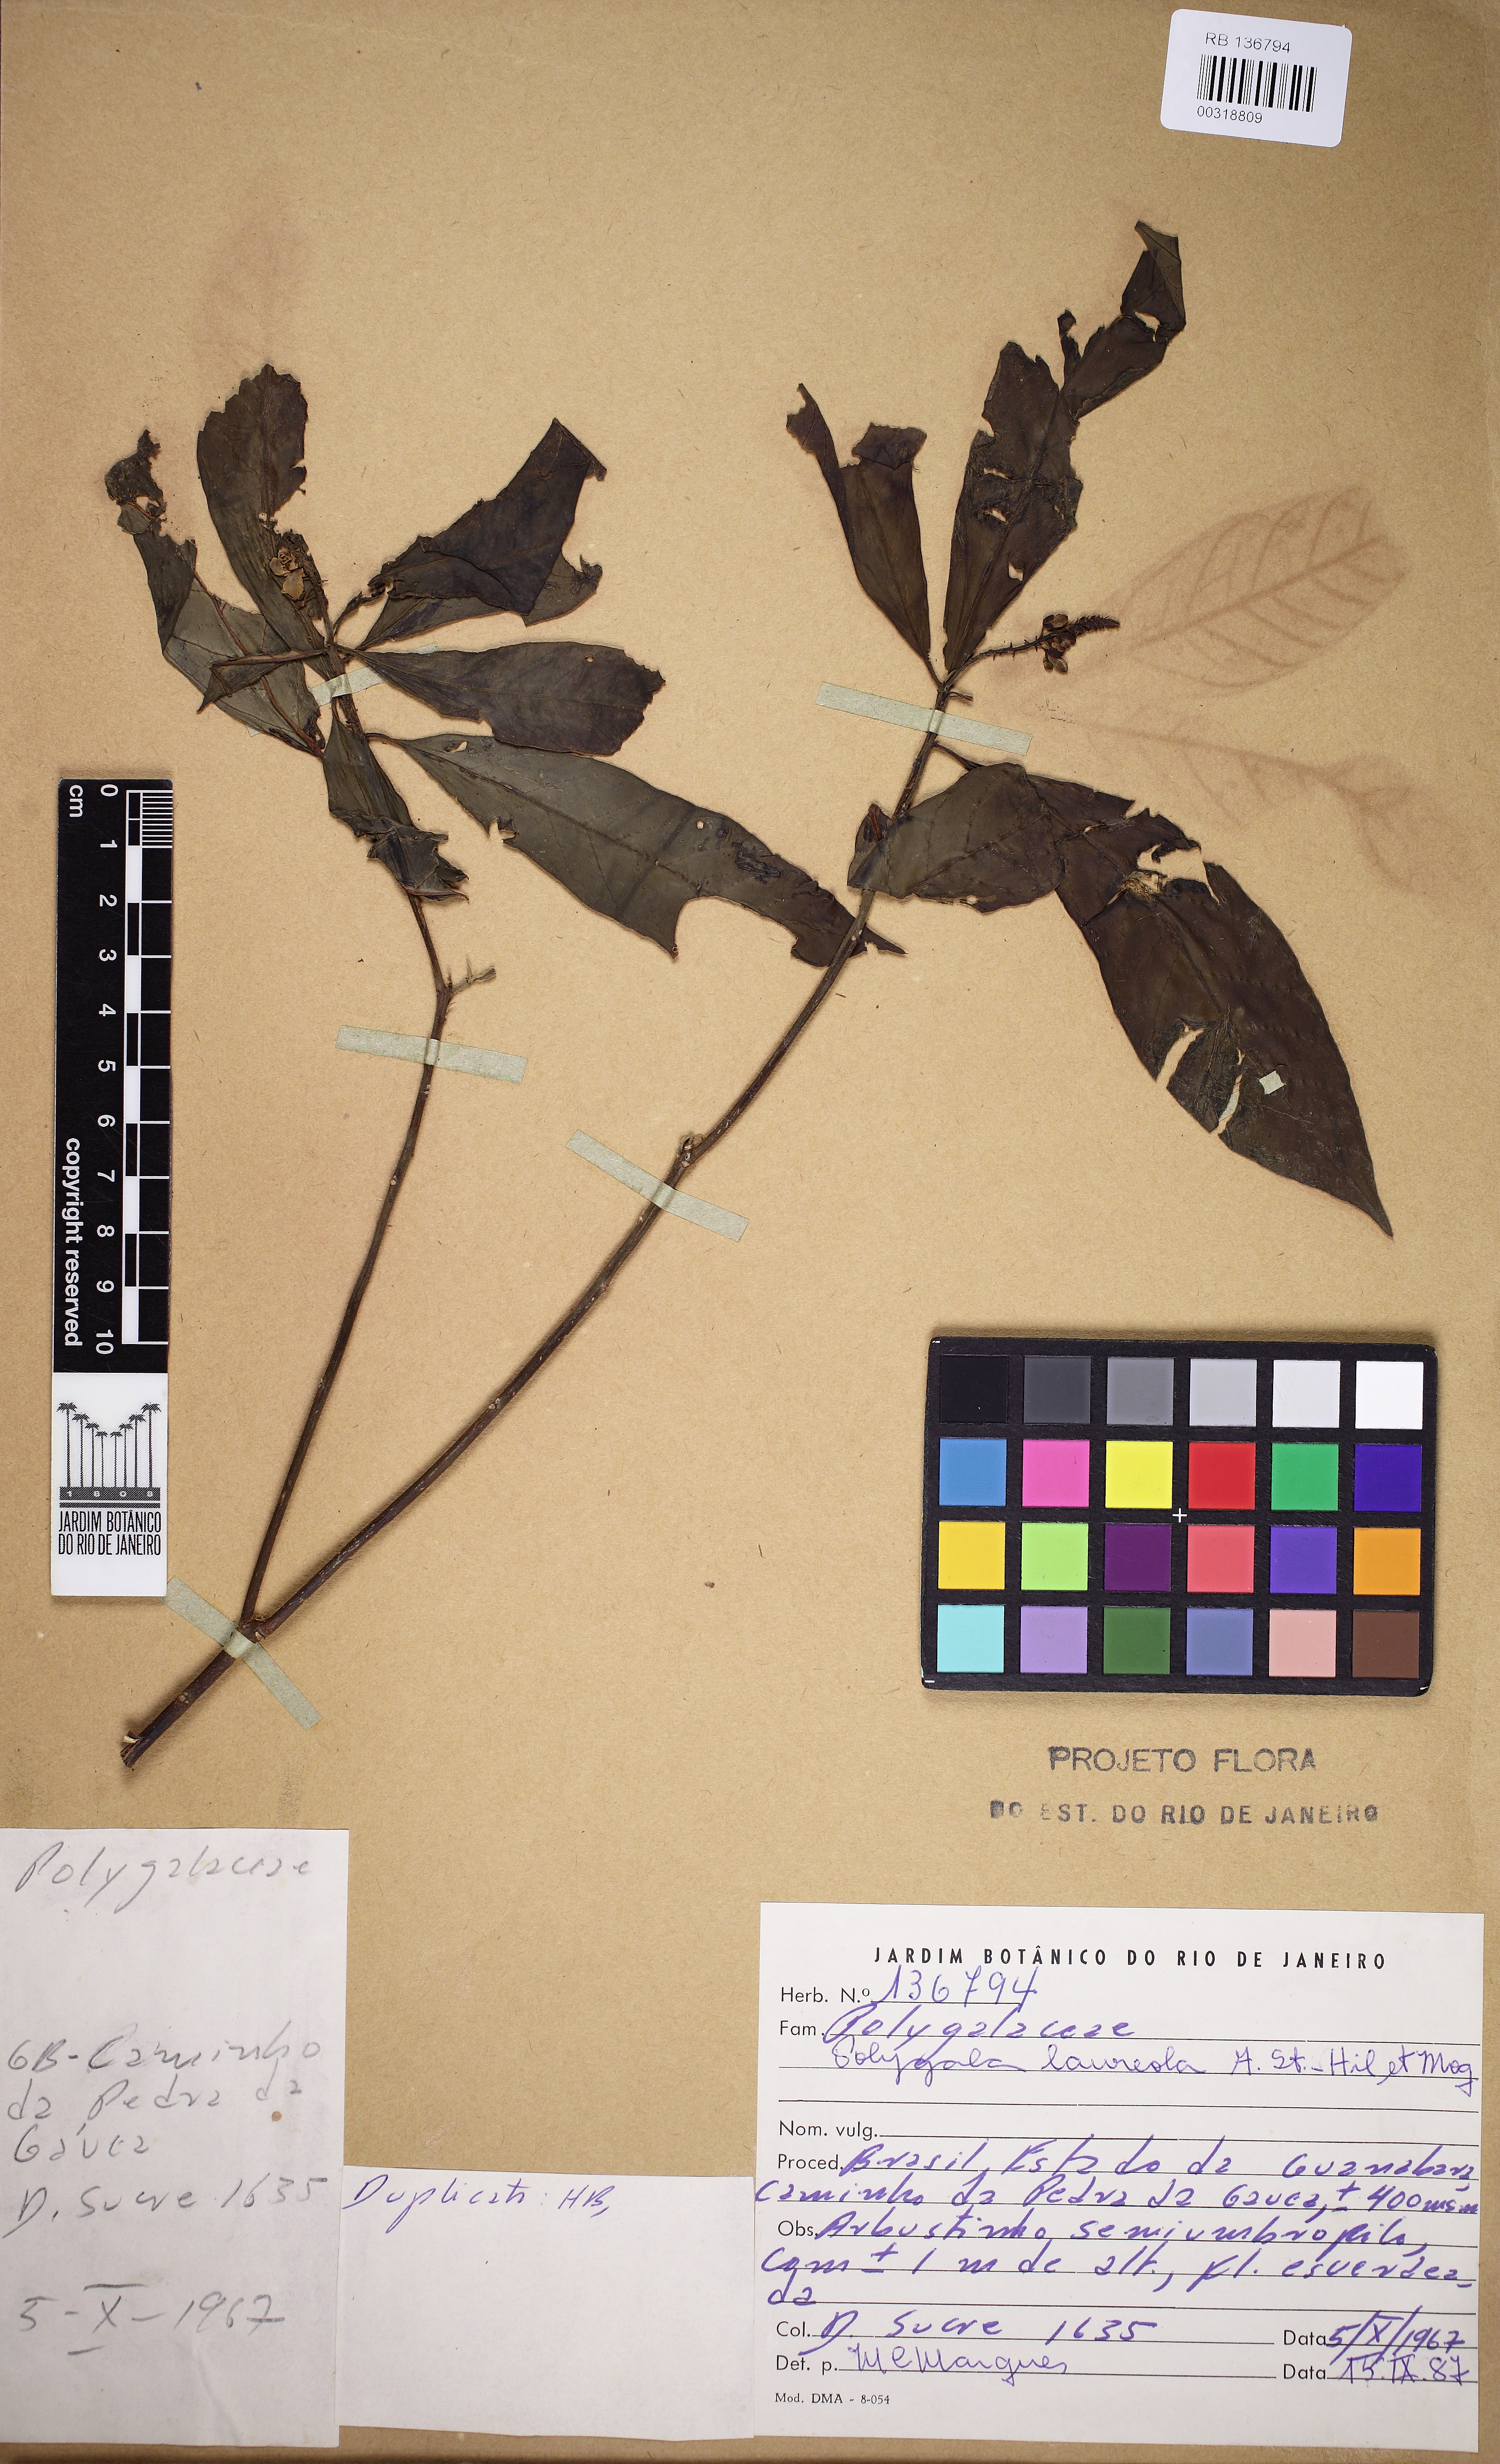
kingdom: Plantae
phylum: Tracheophyta
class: Magnoliopsida
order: Fabales
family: Polygalaceae
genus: Caamembeca
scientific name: Caamembeca salicifolia
